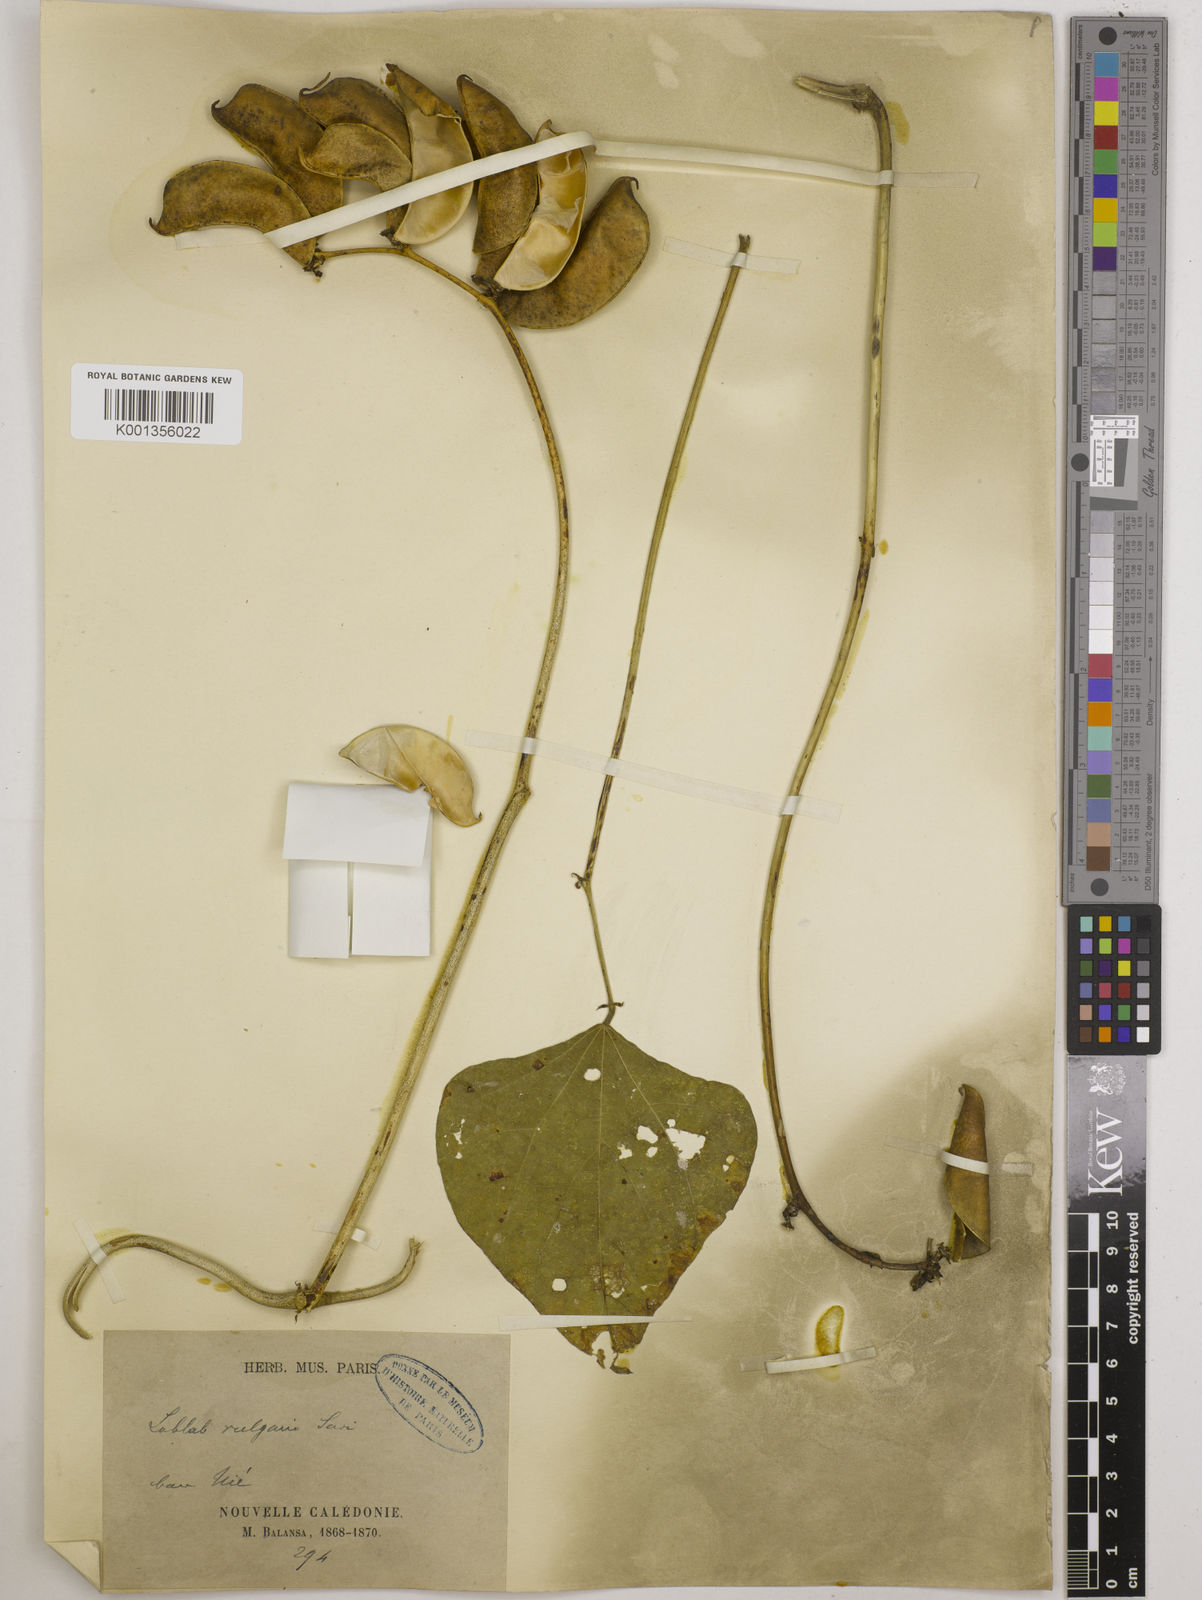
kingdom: Plantae
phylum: Tracheophyta
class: Magnoliopsida
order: Fabales
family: Fabaceae
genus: Lablab
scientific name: Lablab purpureus
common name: Lablab-bean
